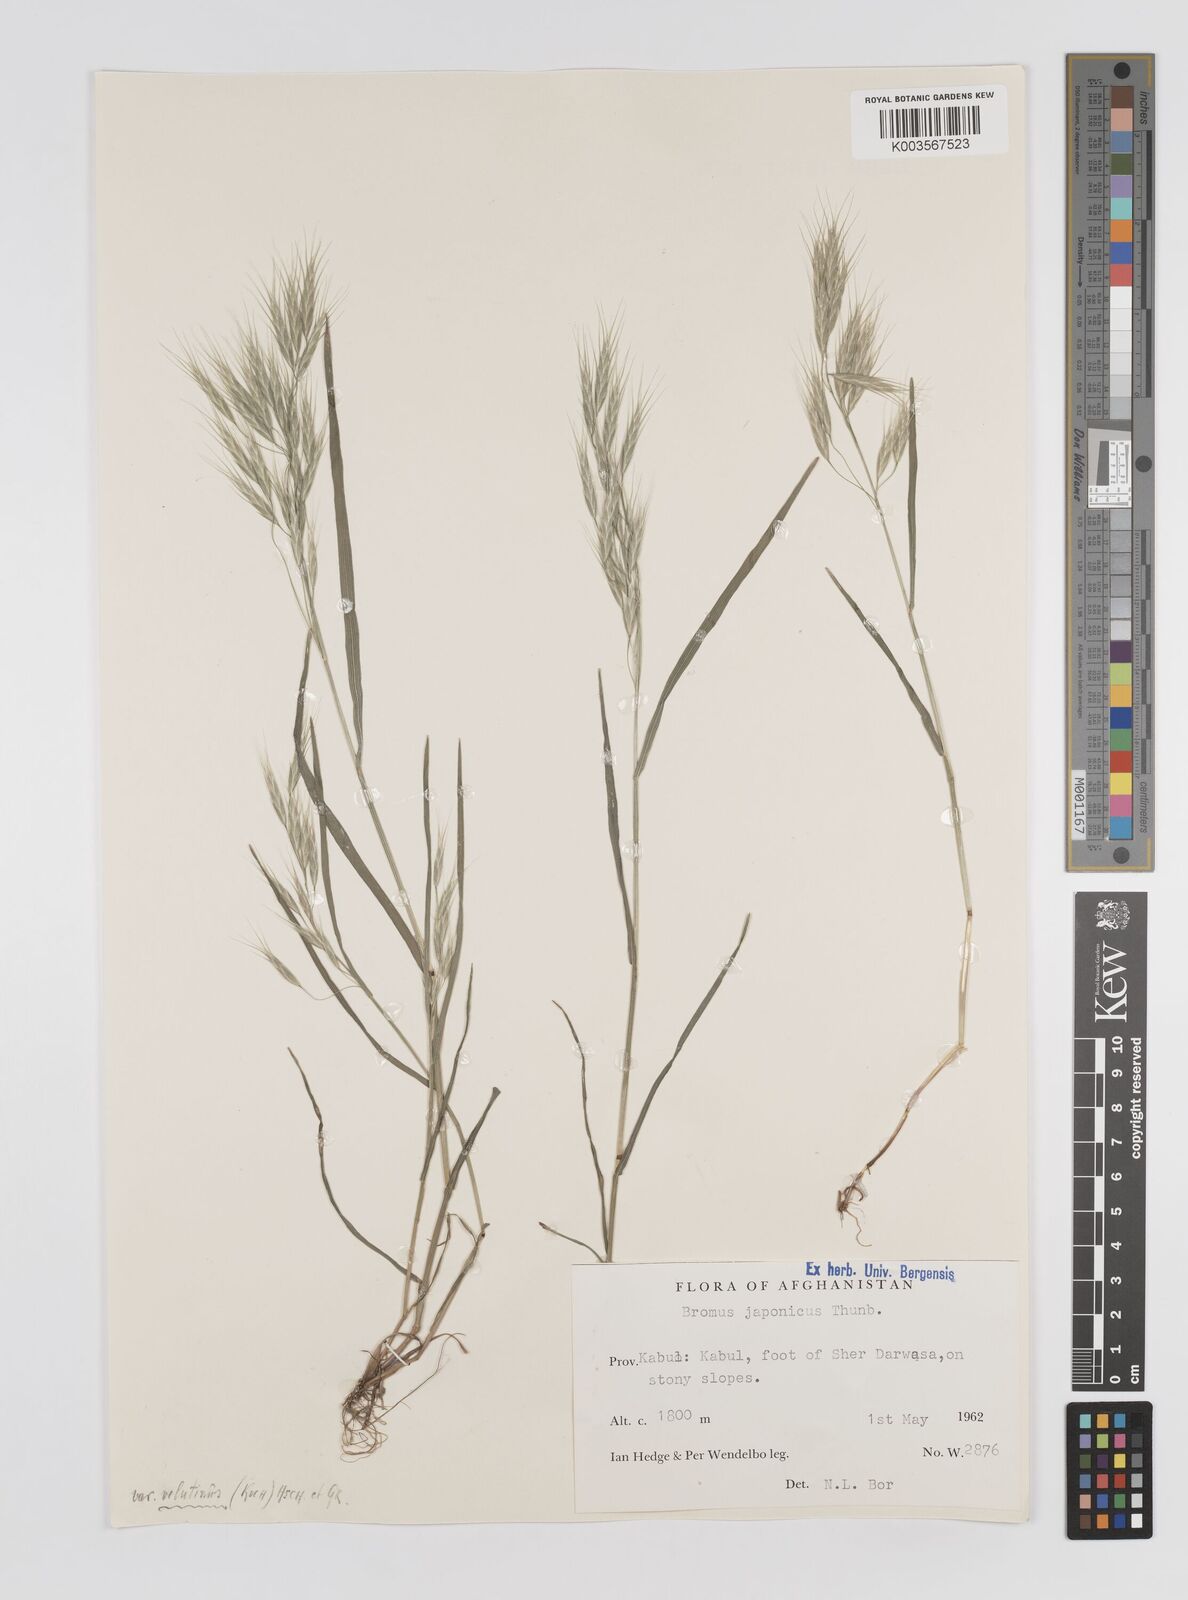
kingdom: Plantae
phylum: Tracheophyta
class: Liliopsida
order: Poales
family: Poaceae
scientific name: Poaceae
